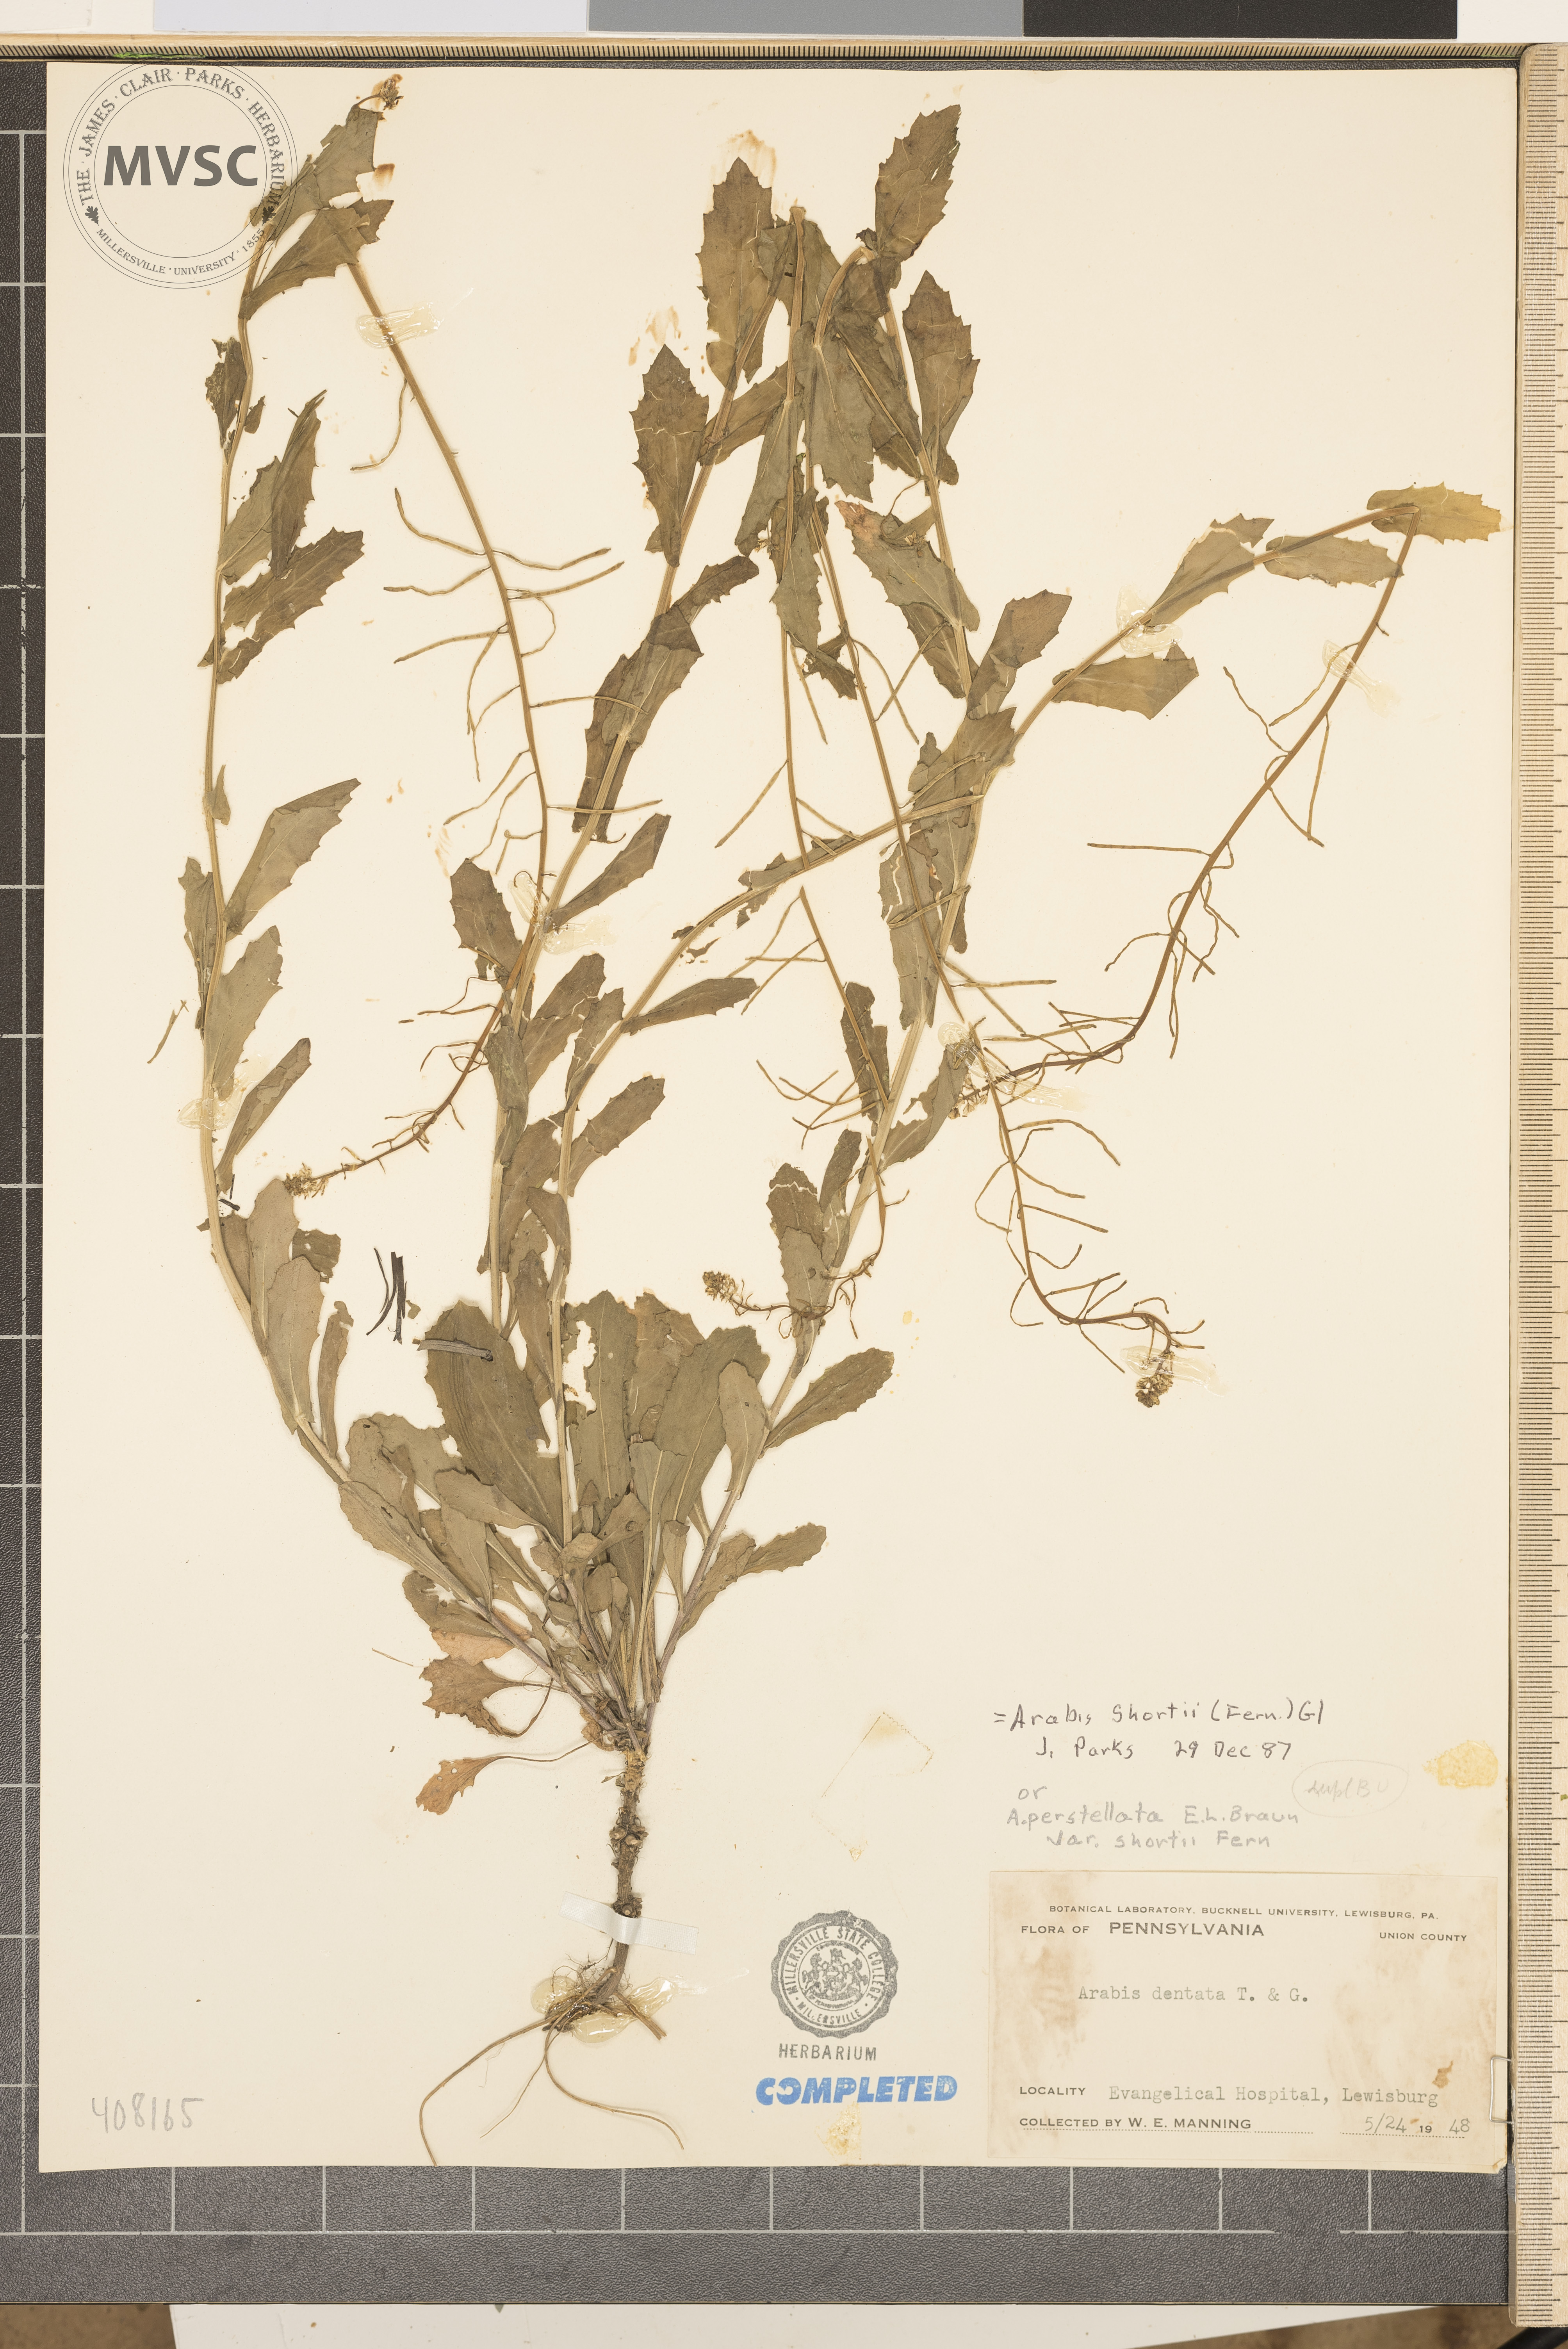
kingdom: Plantae
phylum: Tracheophyta
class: Magnoliopsida
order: Brassicales
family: Brassicaceae
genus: Borodinia
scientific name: Borodinia dentata
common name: Short's rockcress
